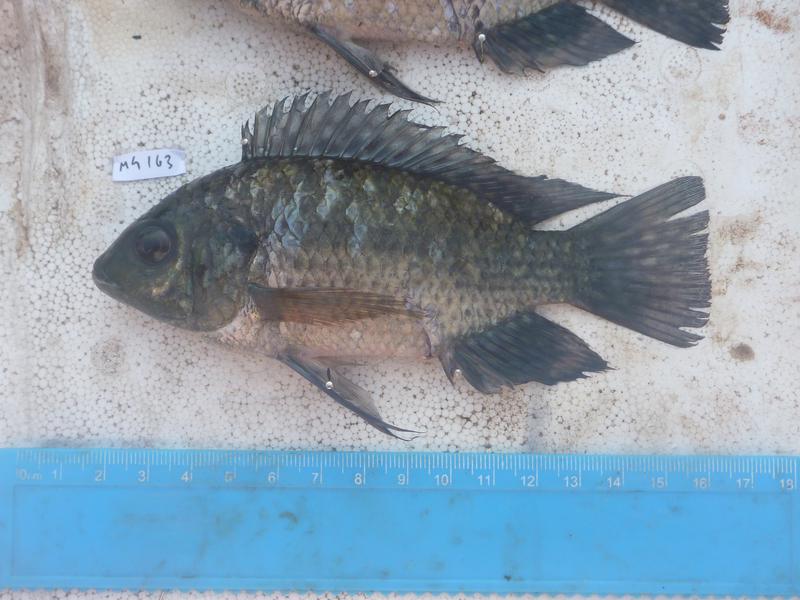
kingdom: Animalia
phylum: Chordata
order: Perciformes
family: Cichlidae
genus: Oreochromis
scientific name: Oreochromis leucostictus
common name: Blue spotted tilapia
